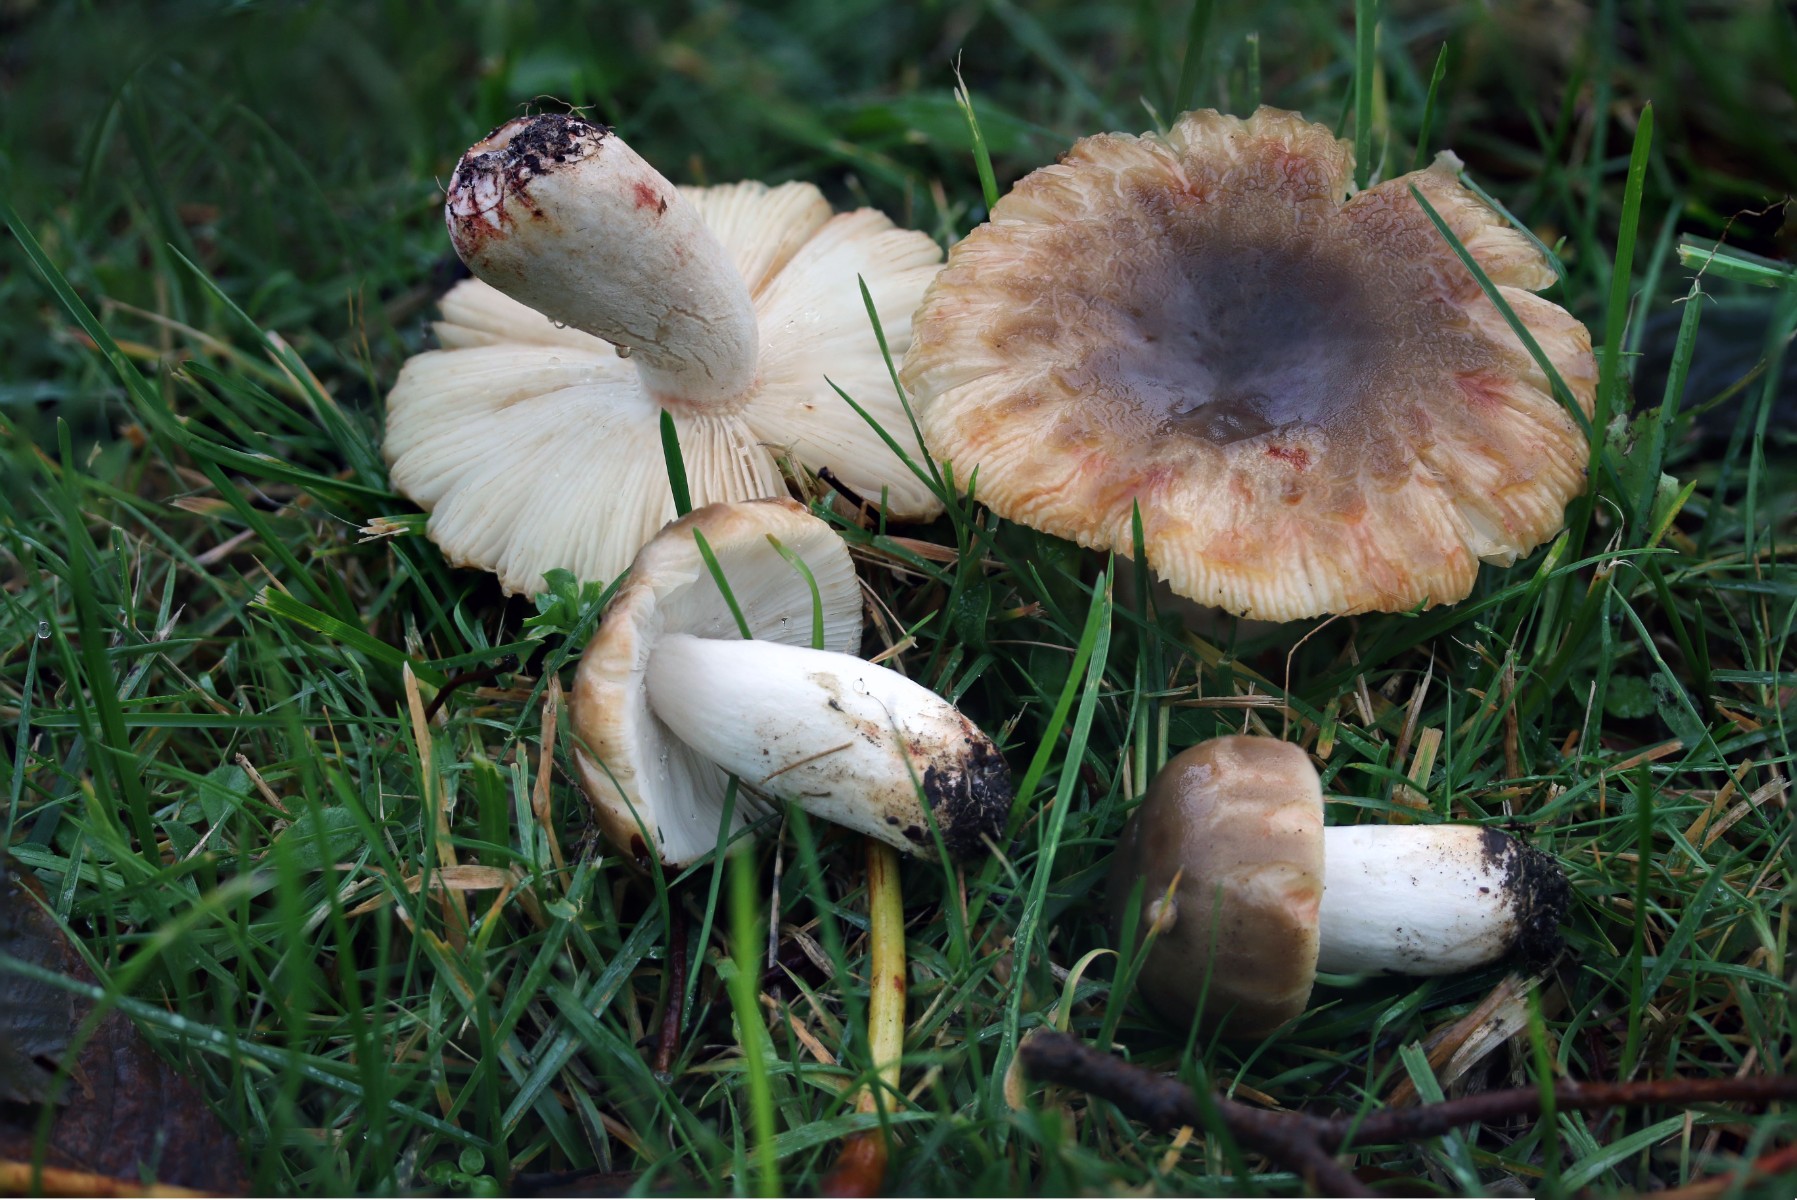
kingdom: Fungi
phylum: Basidiomycota
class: Agaricomycetes
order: Russulales
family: Russulaceae
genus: Russula
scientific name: Russula recondita
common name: mild kam-skørhat
